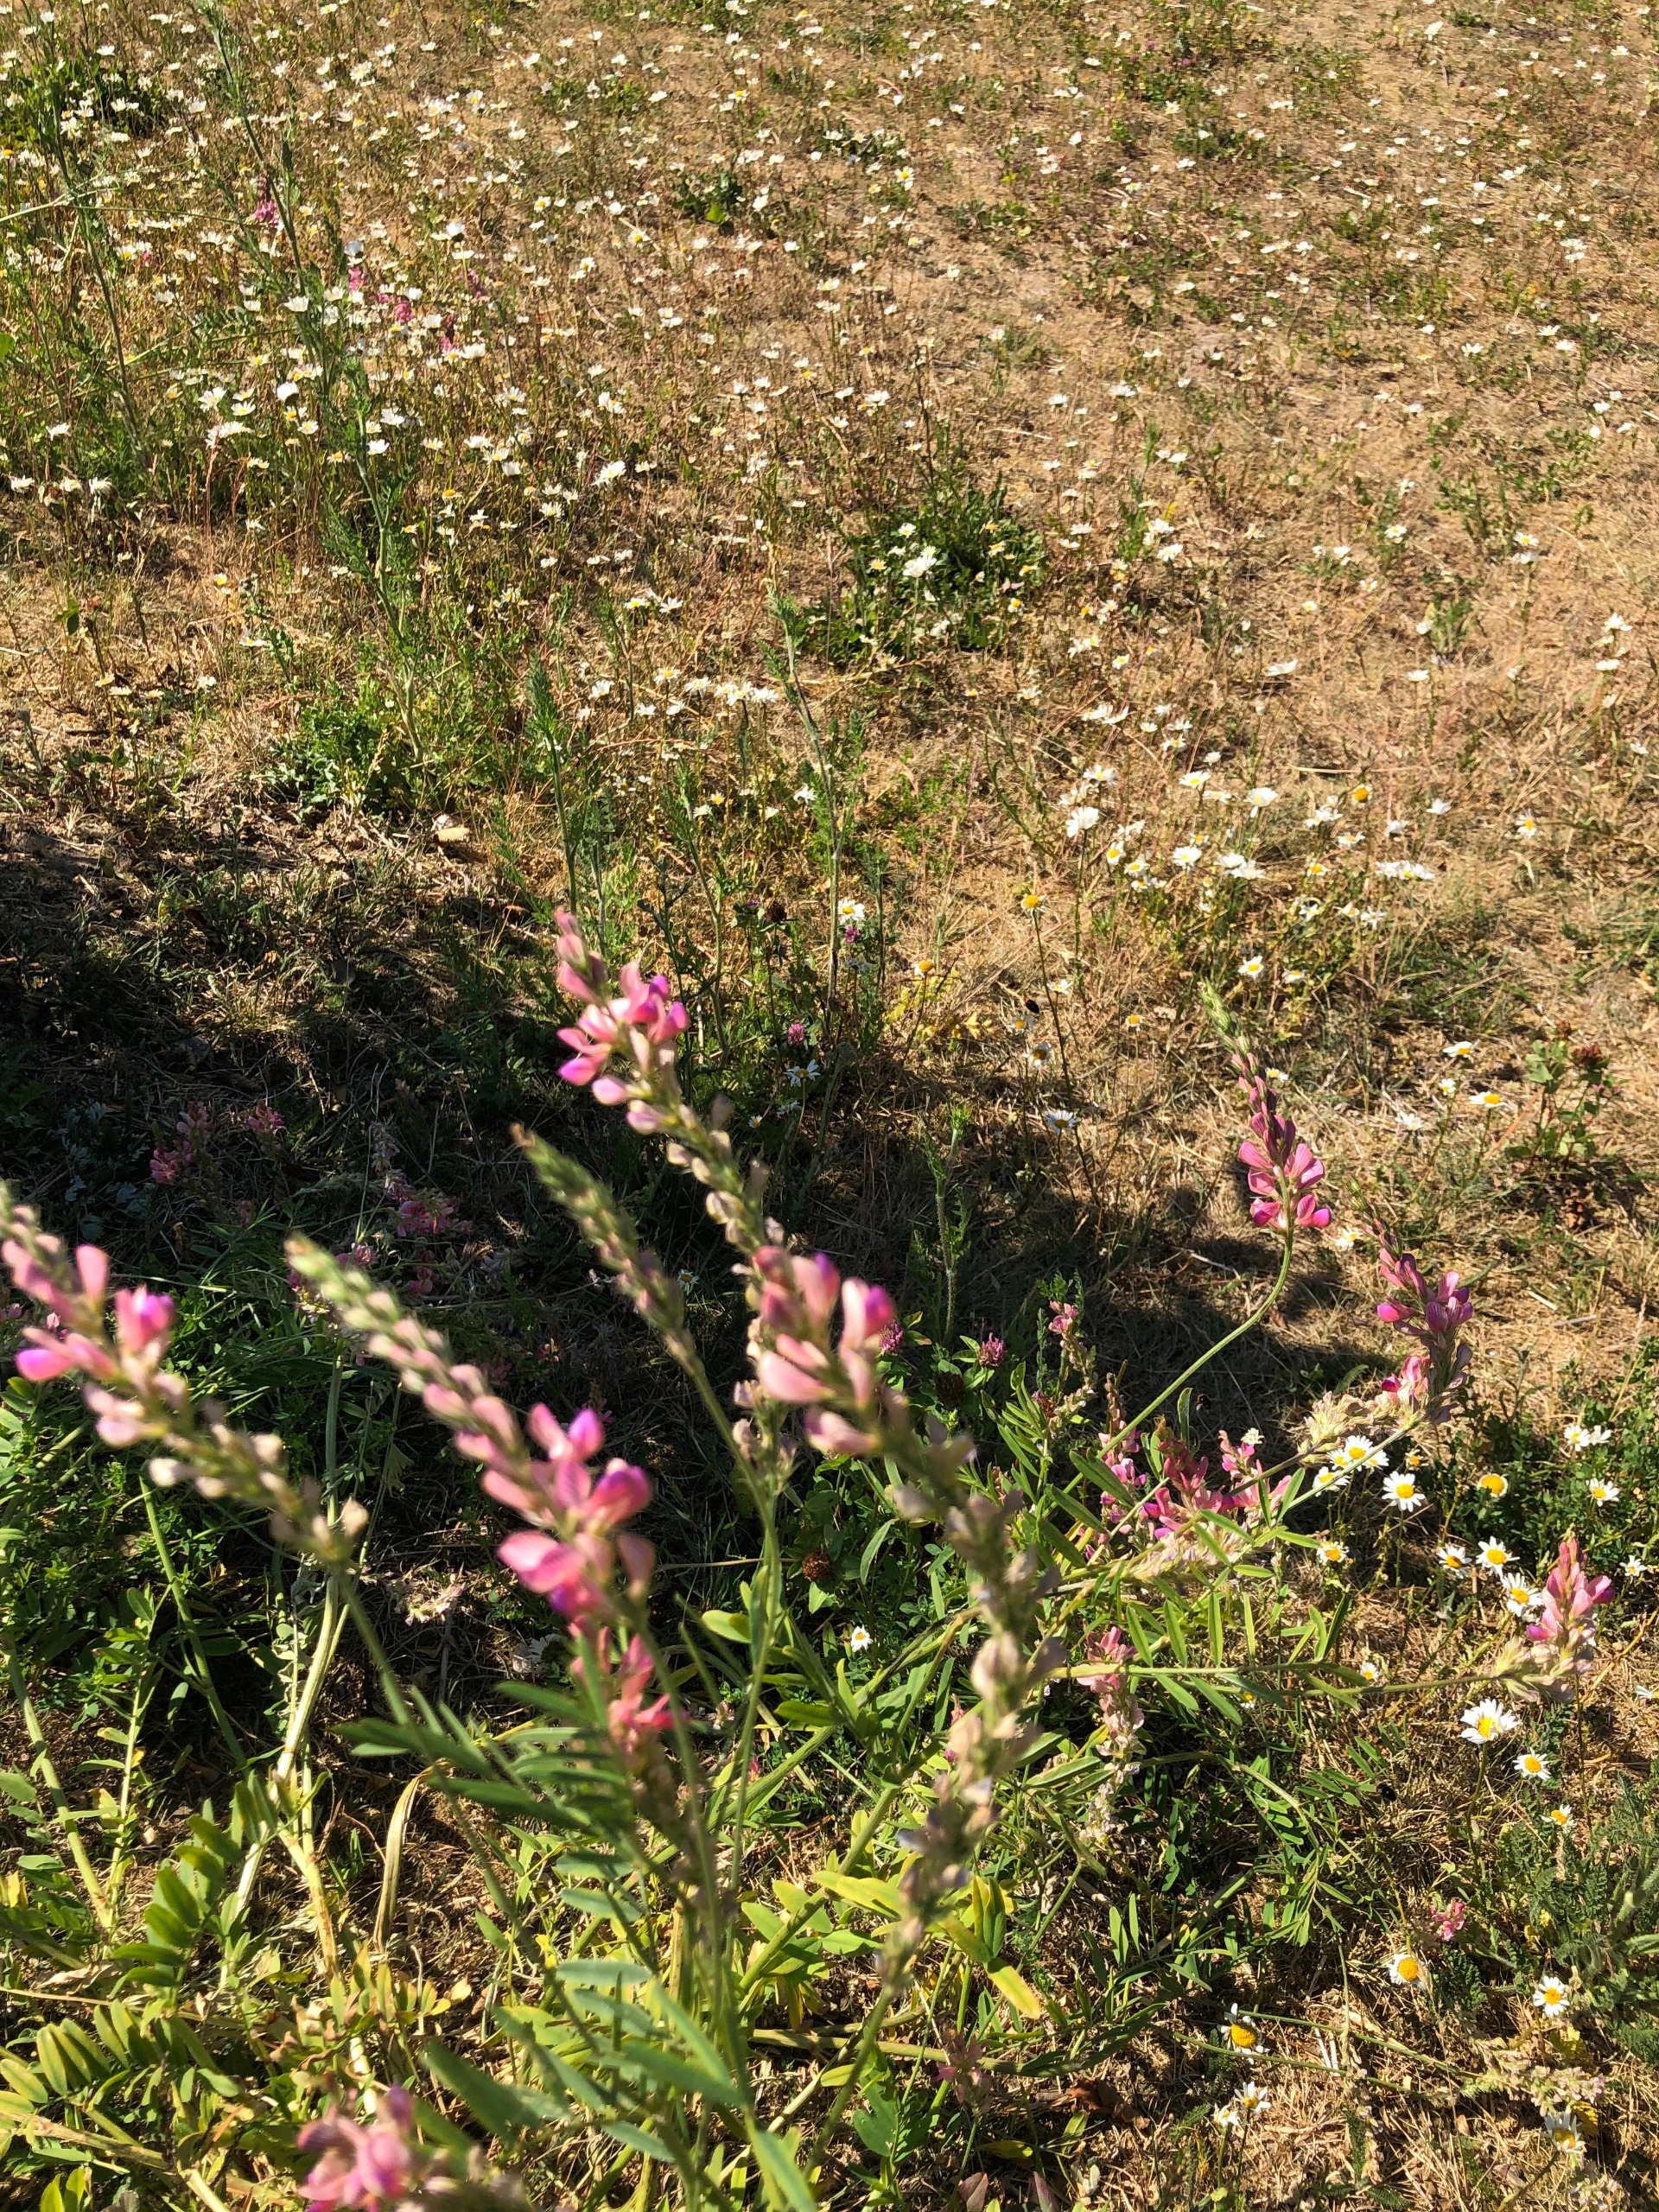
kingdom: Plantae
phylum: Tracheophyta
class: Magnoliopsida
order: Fabales
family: Fabaceae
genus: Onobrychis
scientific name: Onobrychis viciifolia
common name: Esparsette
